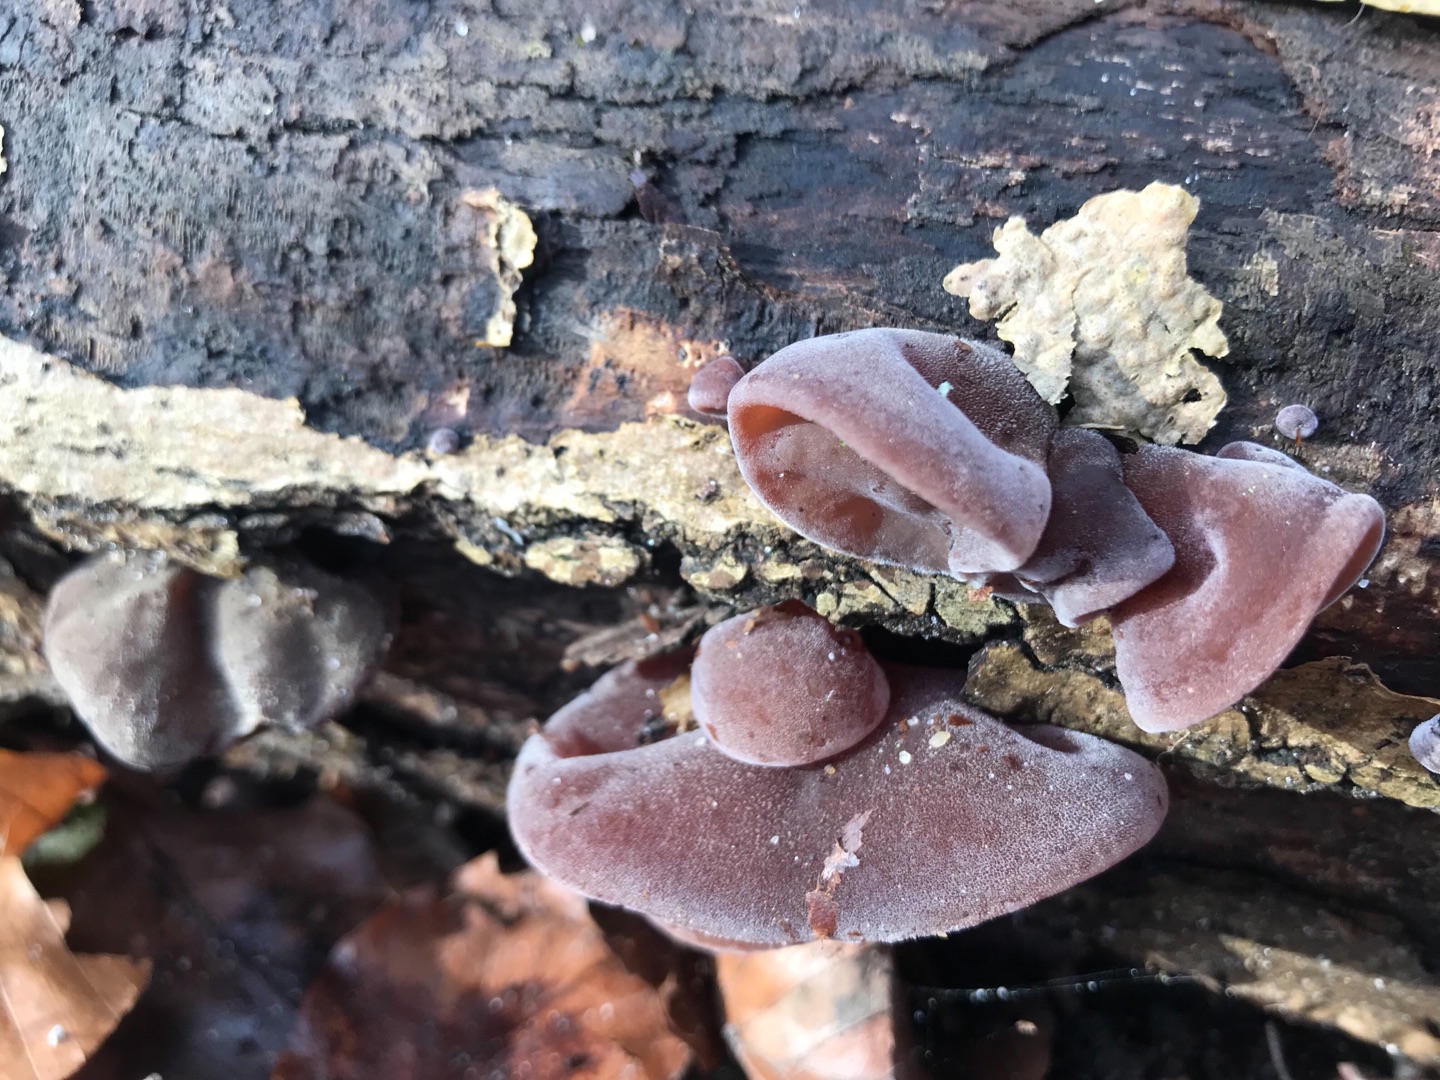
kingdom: Fungi
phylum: Basidiomycota
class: Agaricomycetes
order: Auriculariales
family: Auriculariaceae
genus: Auricularia
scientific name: Auricularia auricula-judae
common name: Almindelig judasøre
